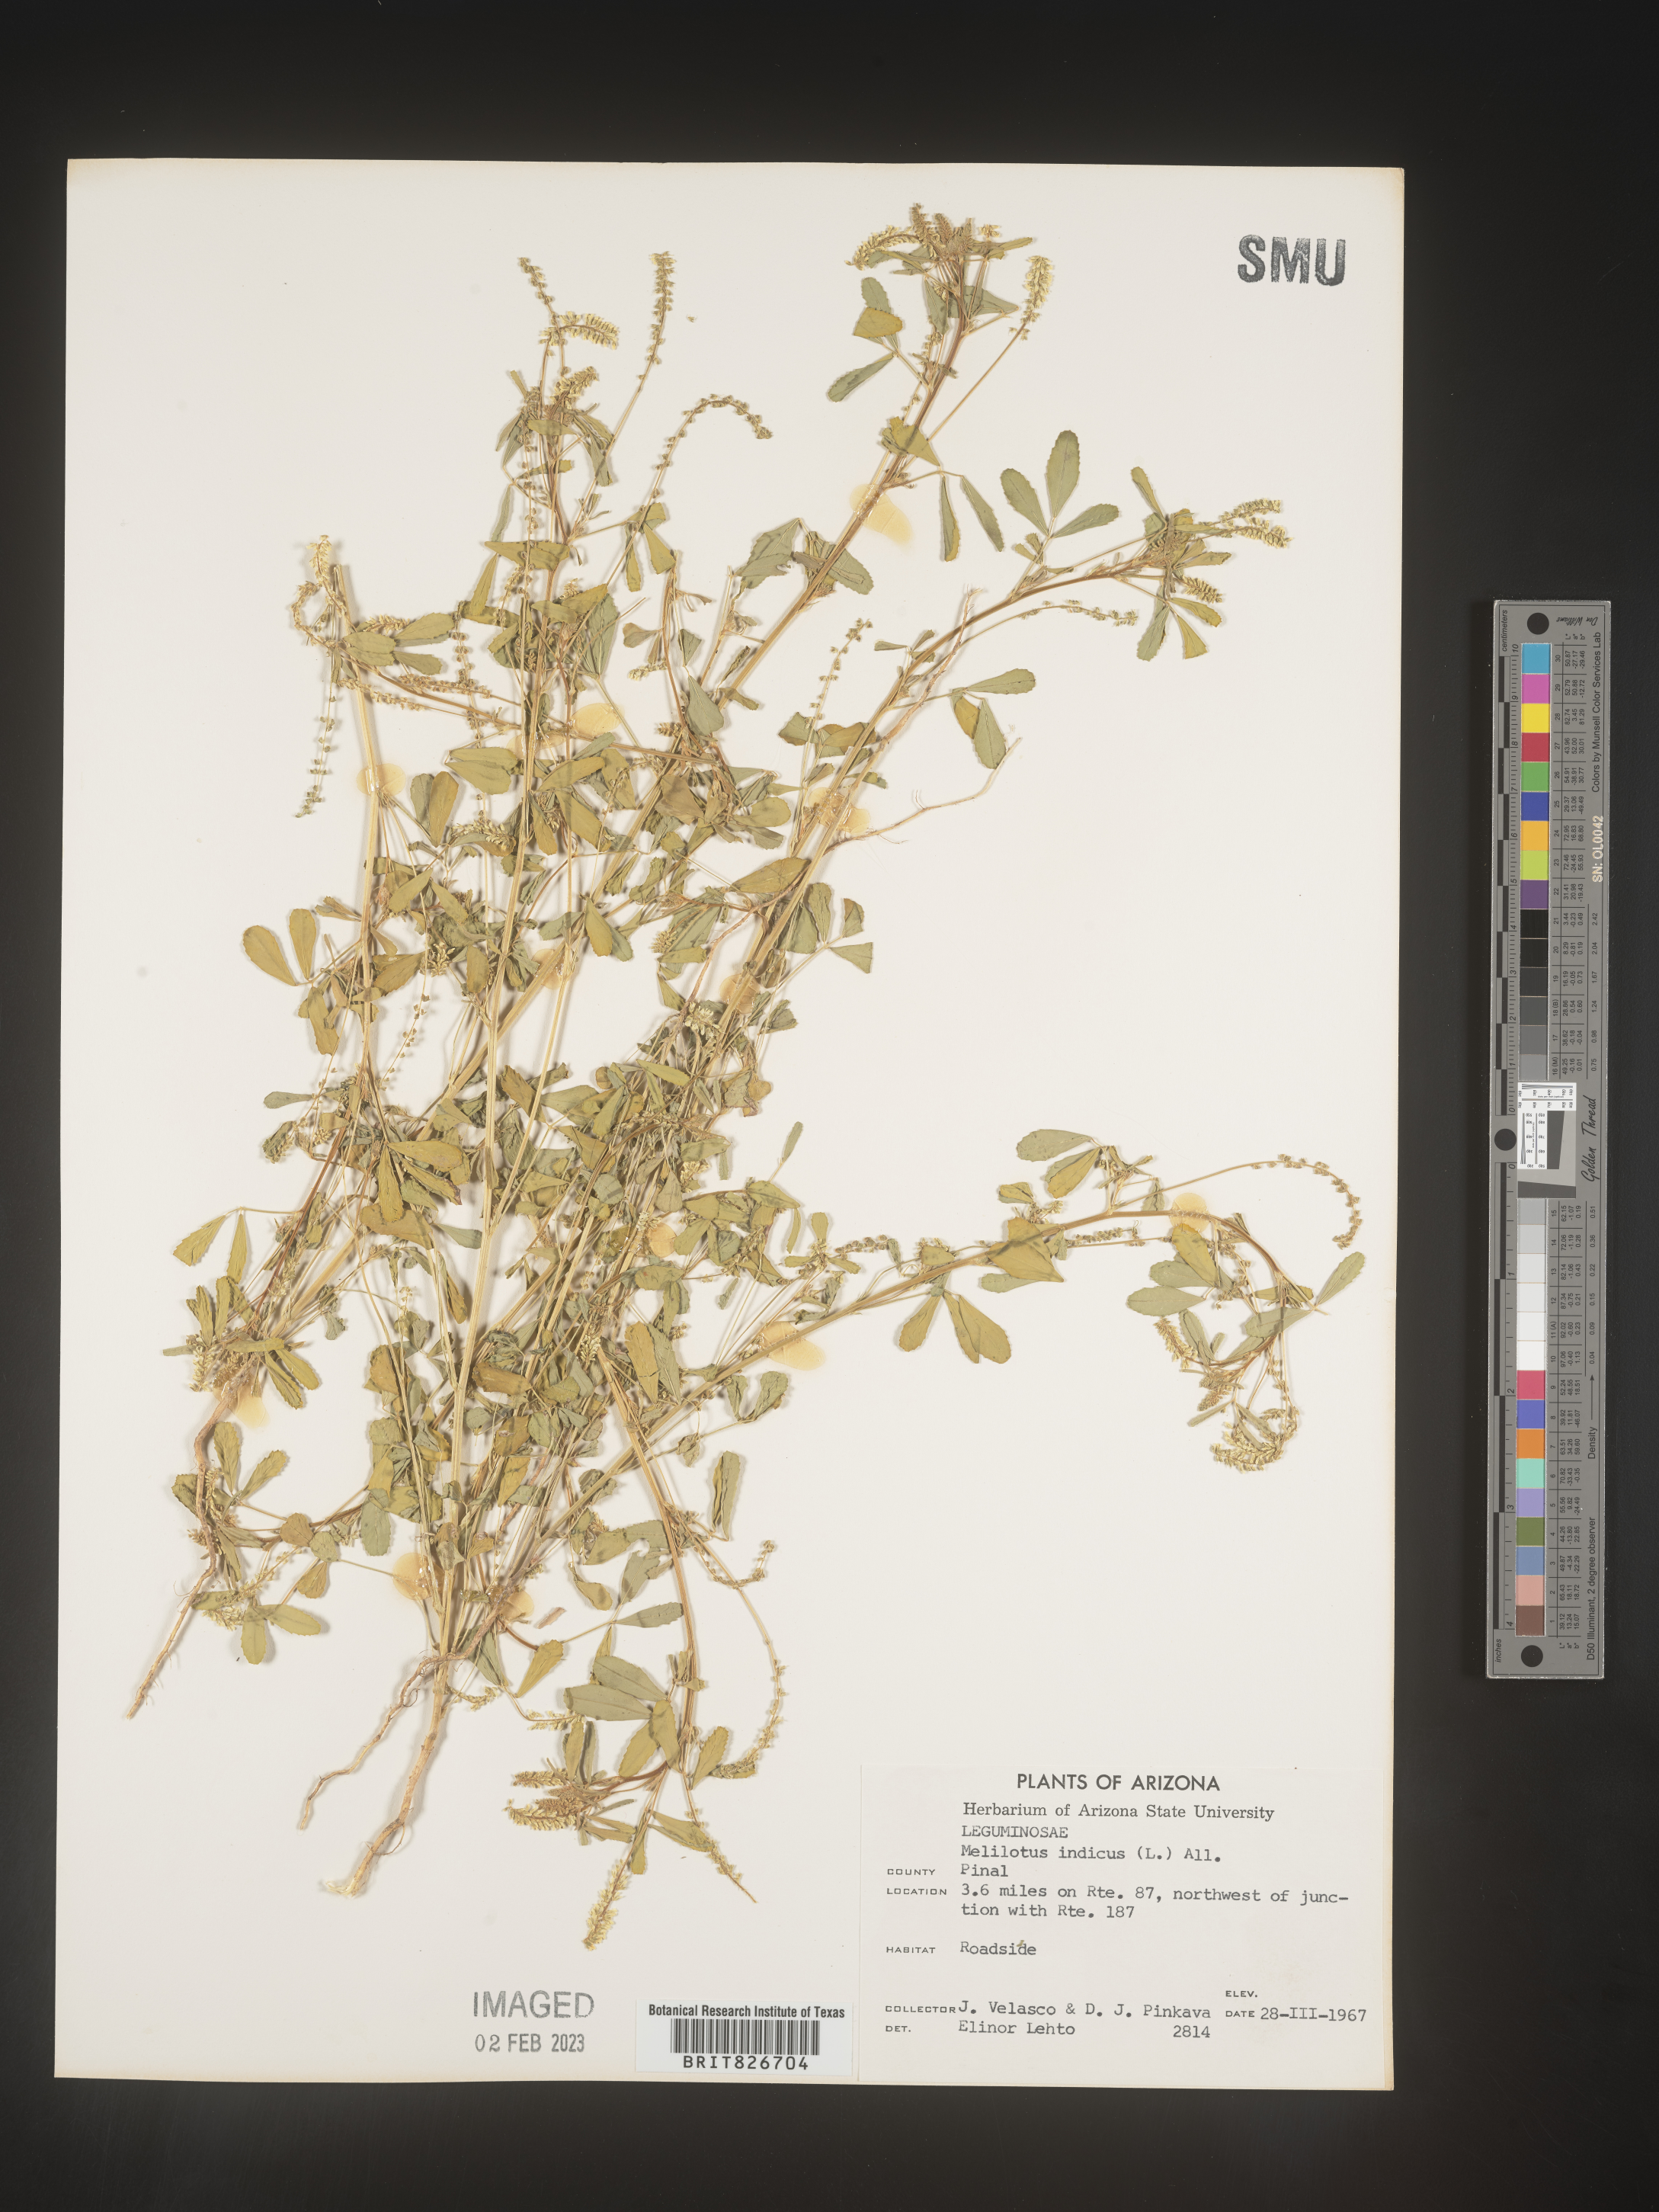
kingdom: Plantae
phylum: Tracheophyta
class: Magnoliopsida
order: Fabales
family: Fabaceae
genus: Melilotus
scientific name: Melilotus indicus
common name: Small melilot
